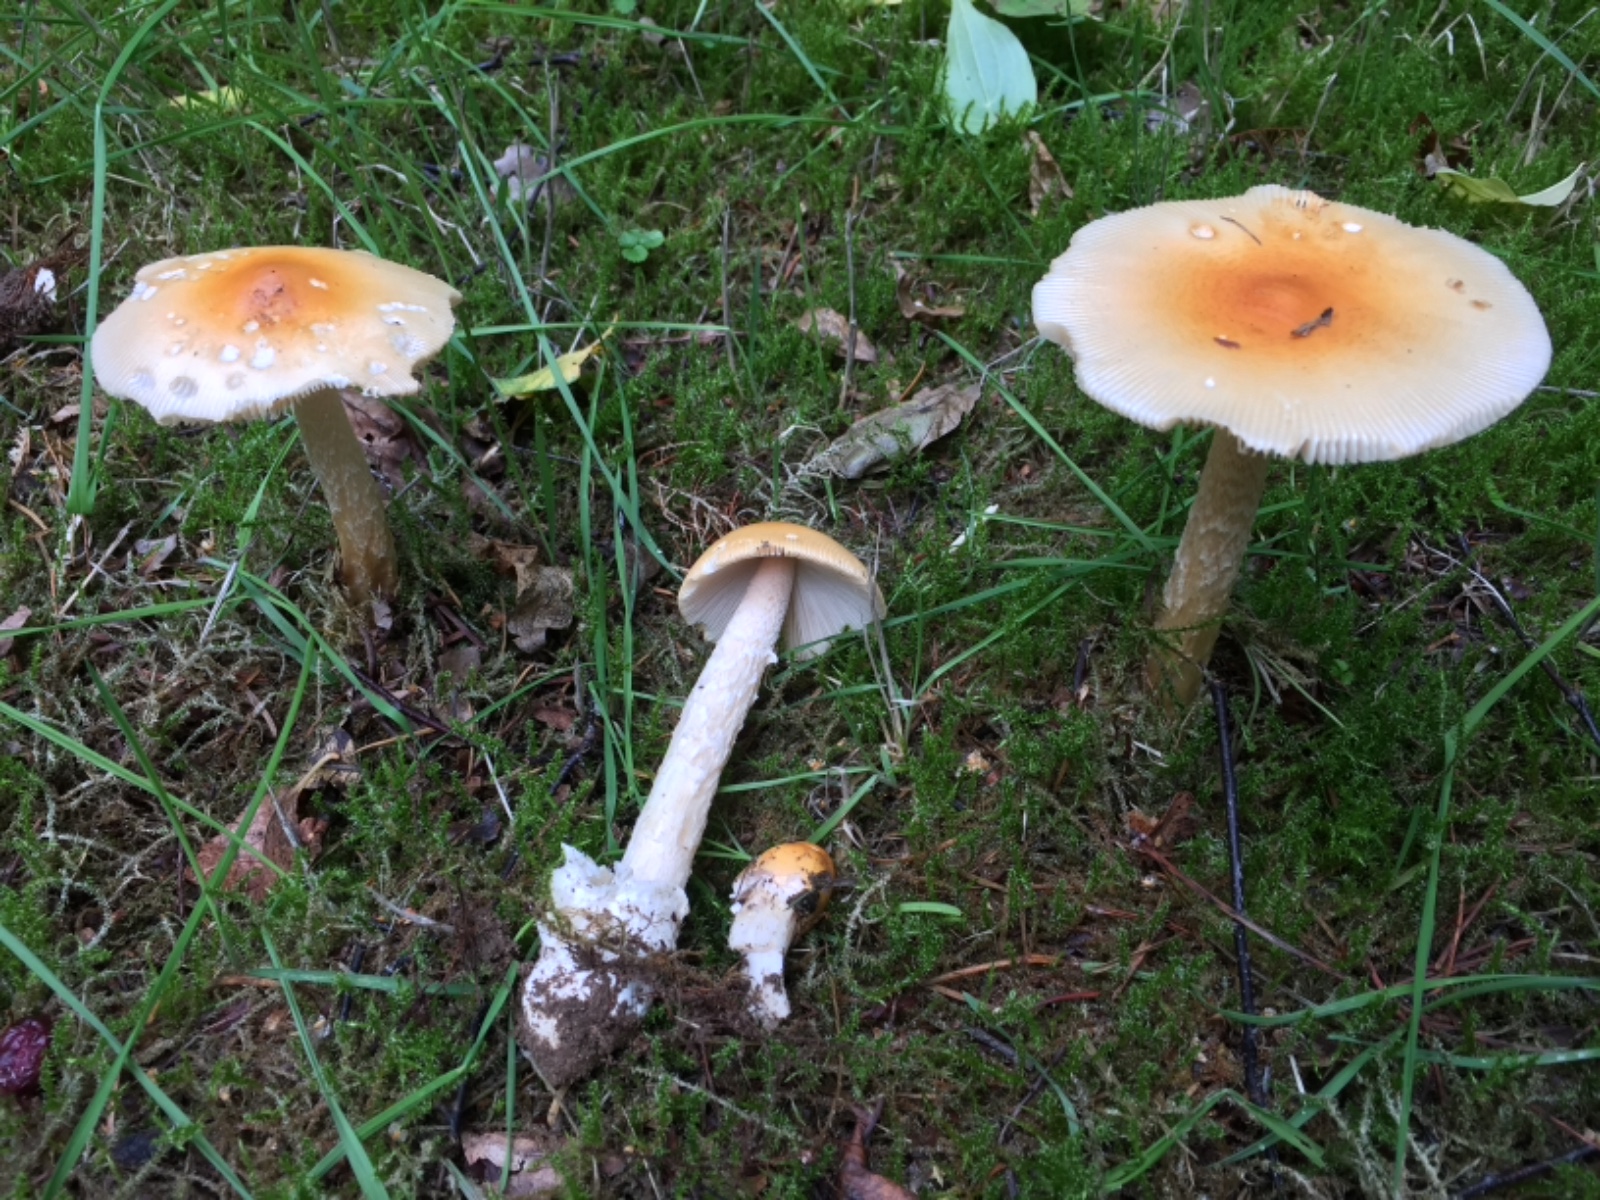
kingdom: Fungi
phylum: Basidiomycota
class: Agaricomycetes
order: Agaricales
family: Amanitaceae
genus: Amanita
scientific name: Amanita crocea
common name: gylden kam-fluesvamp
